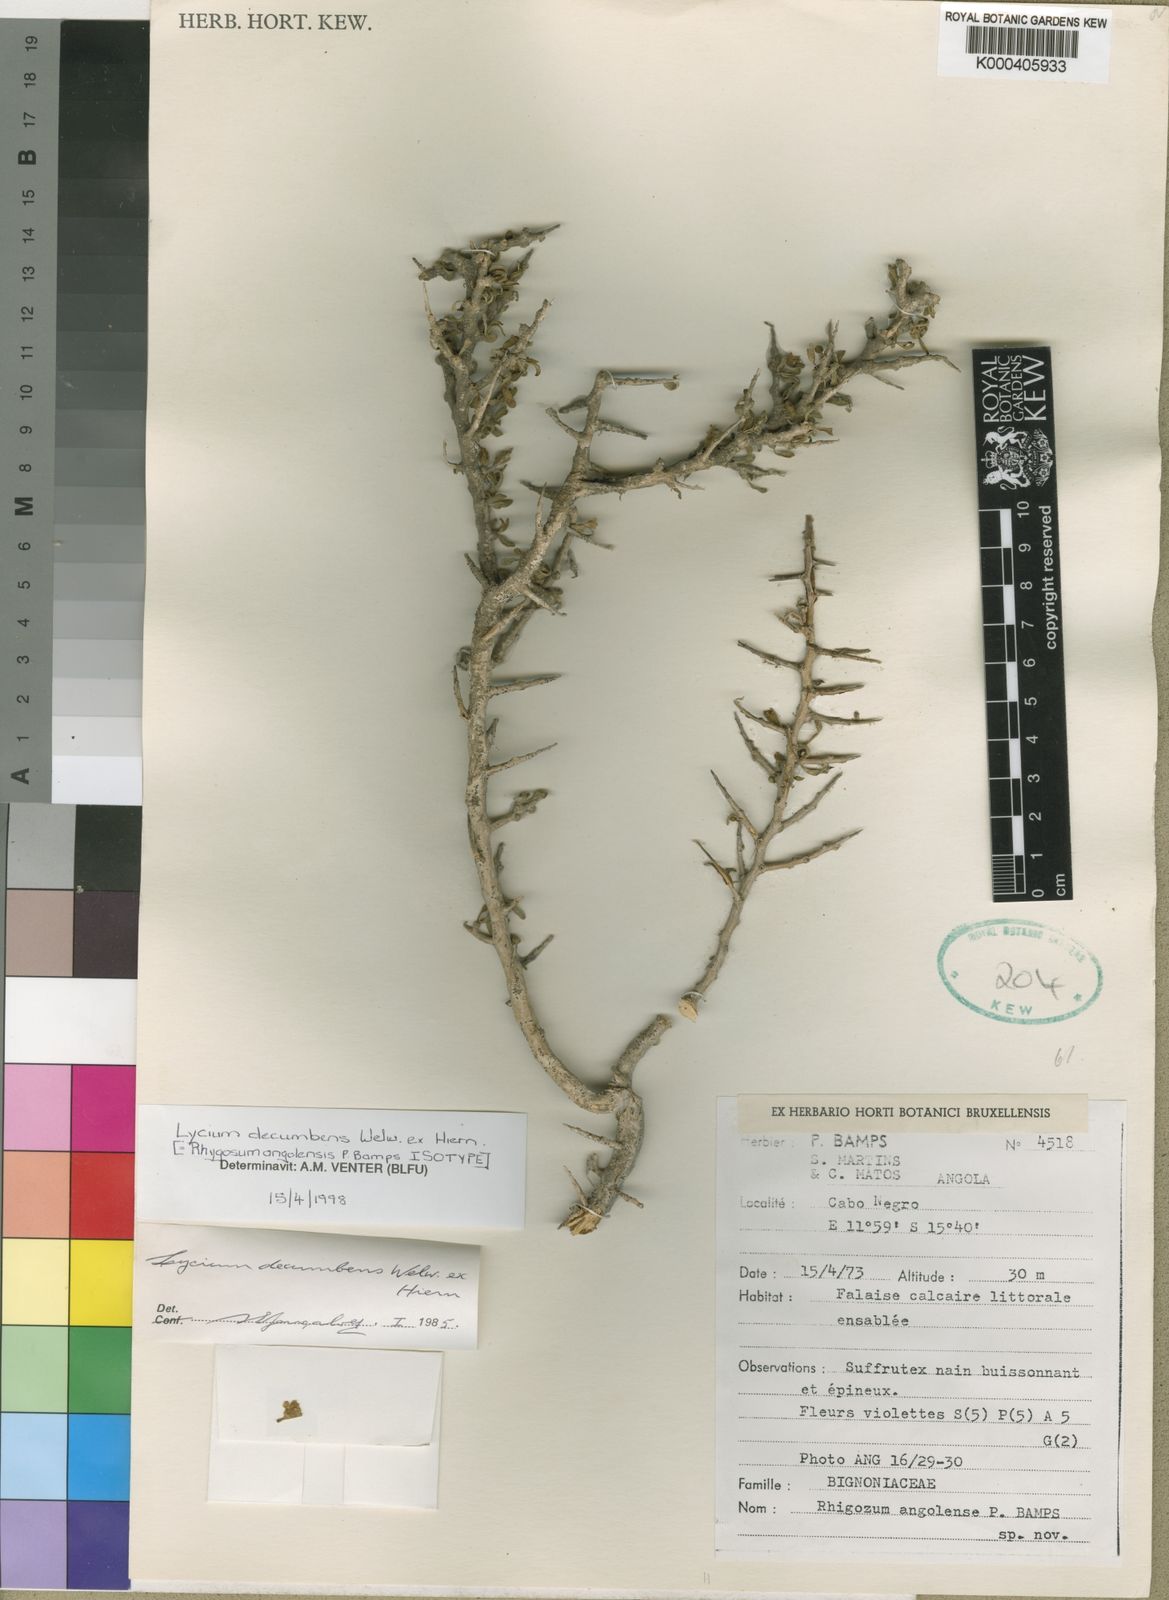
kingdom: Plantae
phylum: Tracheophyta
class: Magnoliopsida
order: Solanales
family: Solanaceae
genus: Lycium
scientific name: Lycium decumbens
